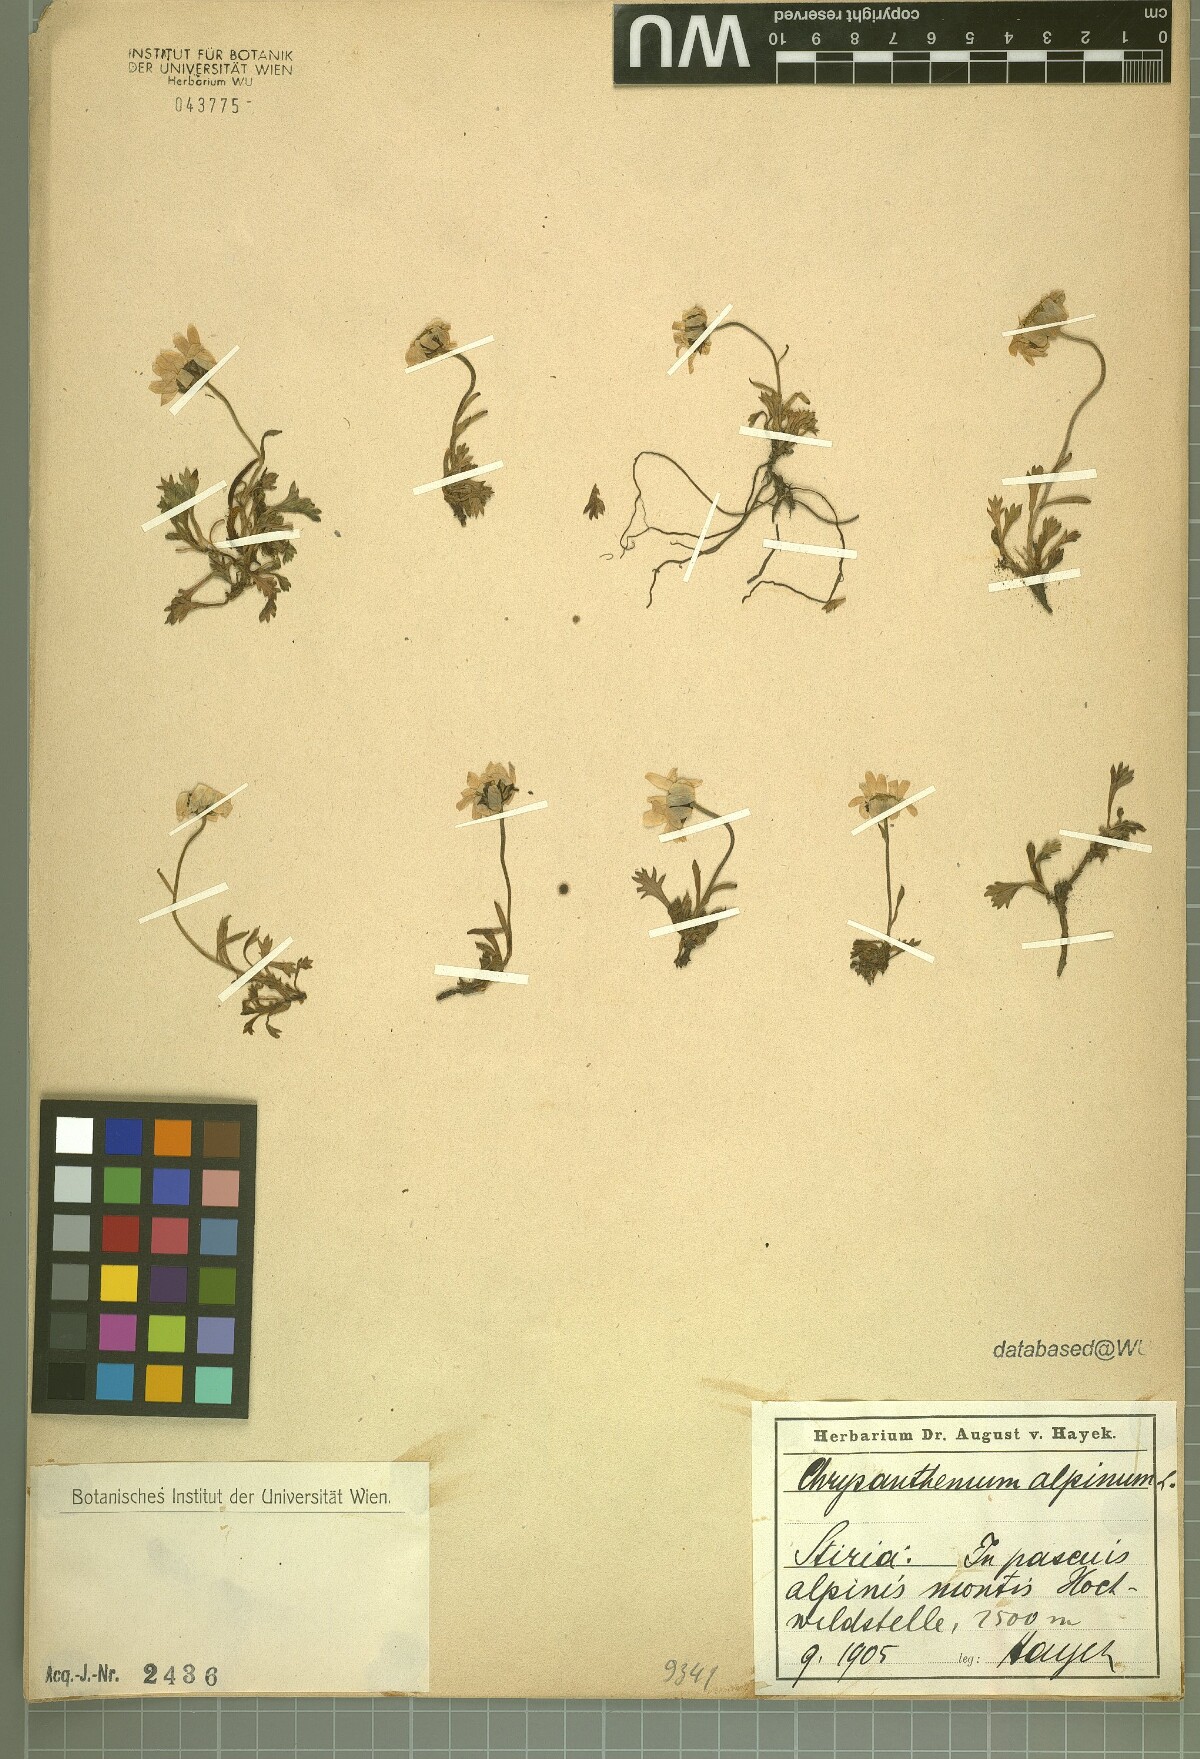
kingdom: Plantae
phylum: Tracheophyta
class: Magnoliopsida
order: Asterales
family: Asteraceae
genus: Leucanthemopsis
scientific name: Leucanthemopsis alpina
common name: Alpine moon daisy
